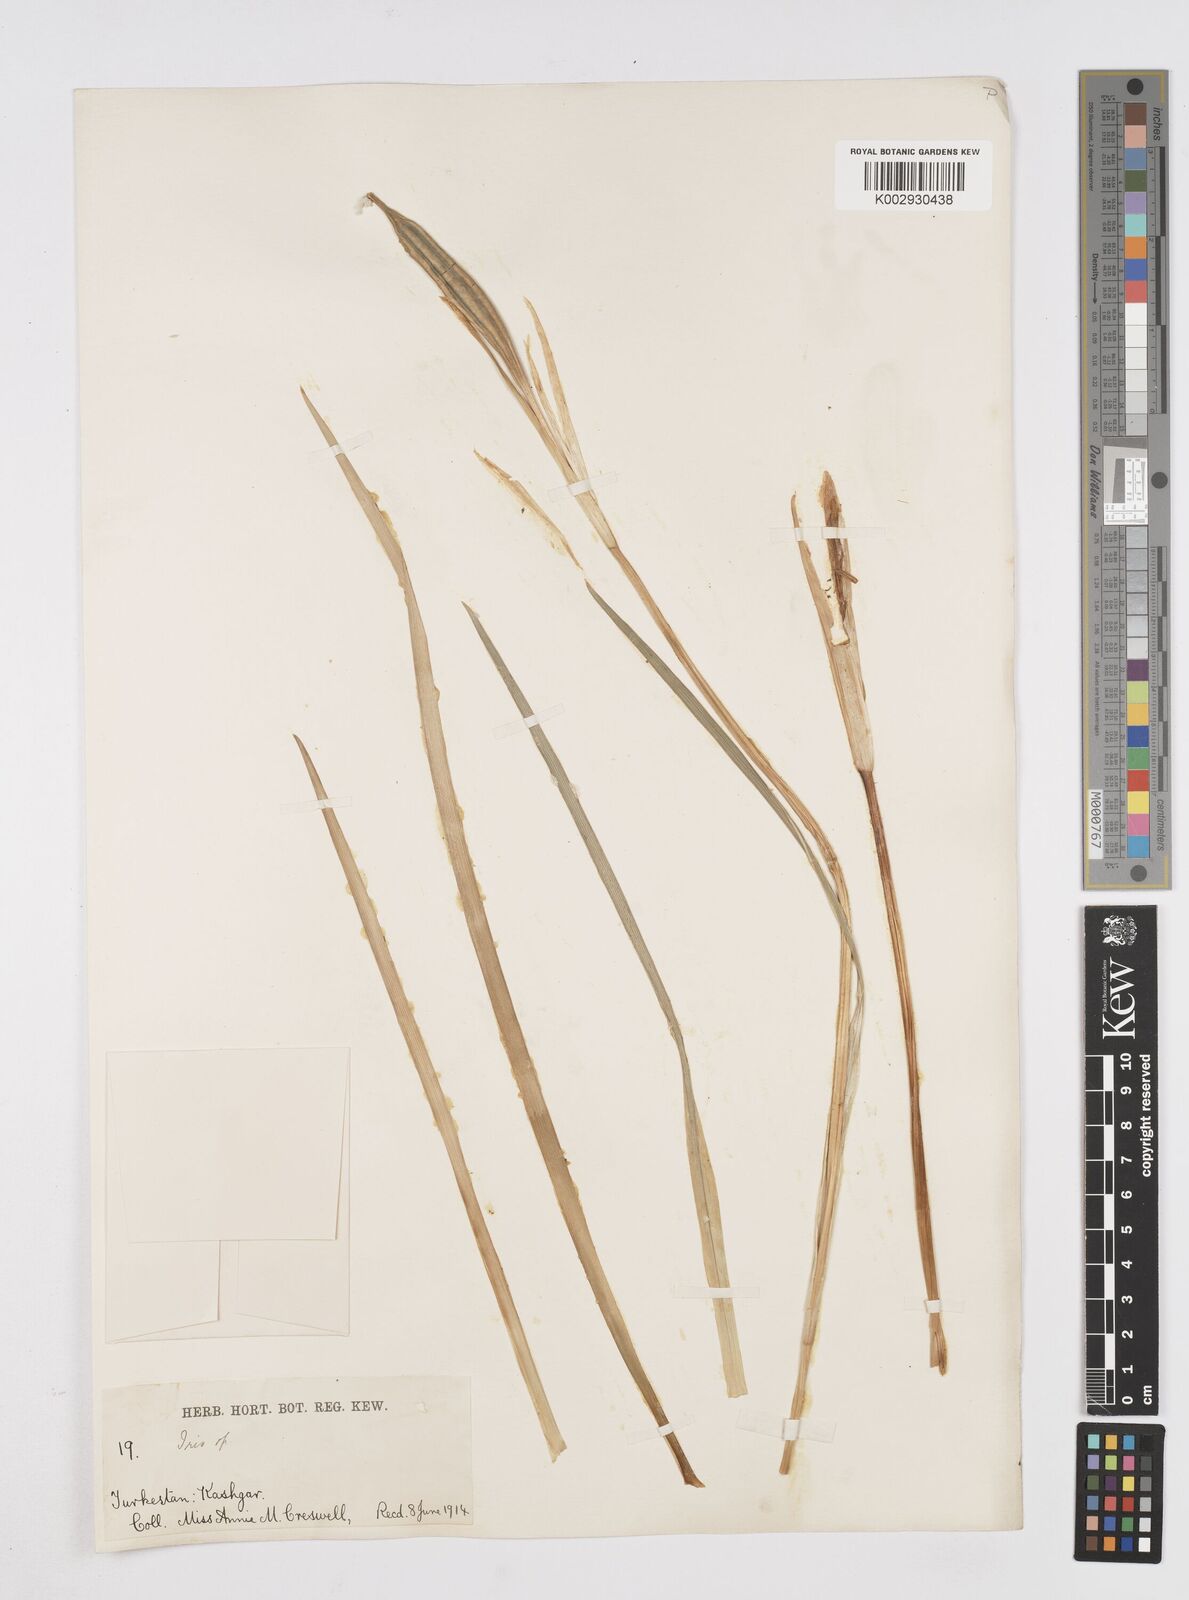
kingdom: Plantae
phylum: Tracheophyta
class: Liliopsida
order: Asparagales
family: Iridaceae
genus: Iris
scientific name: Iris
